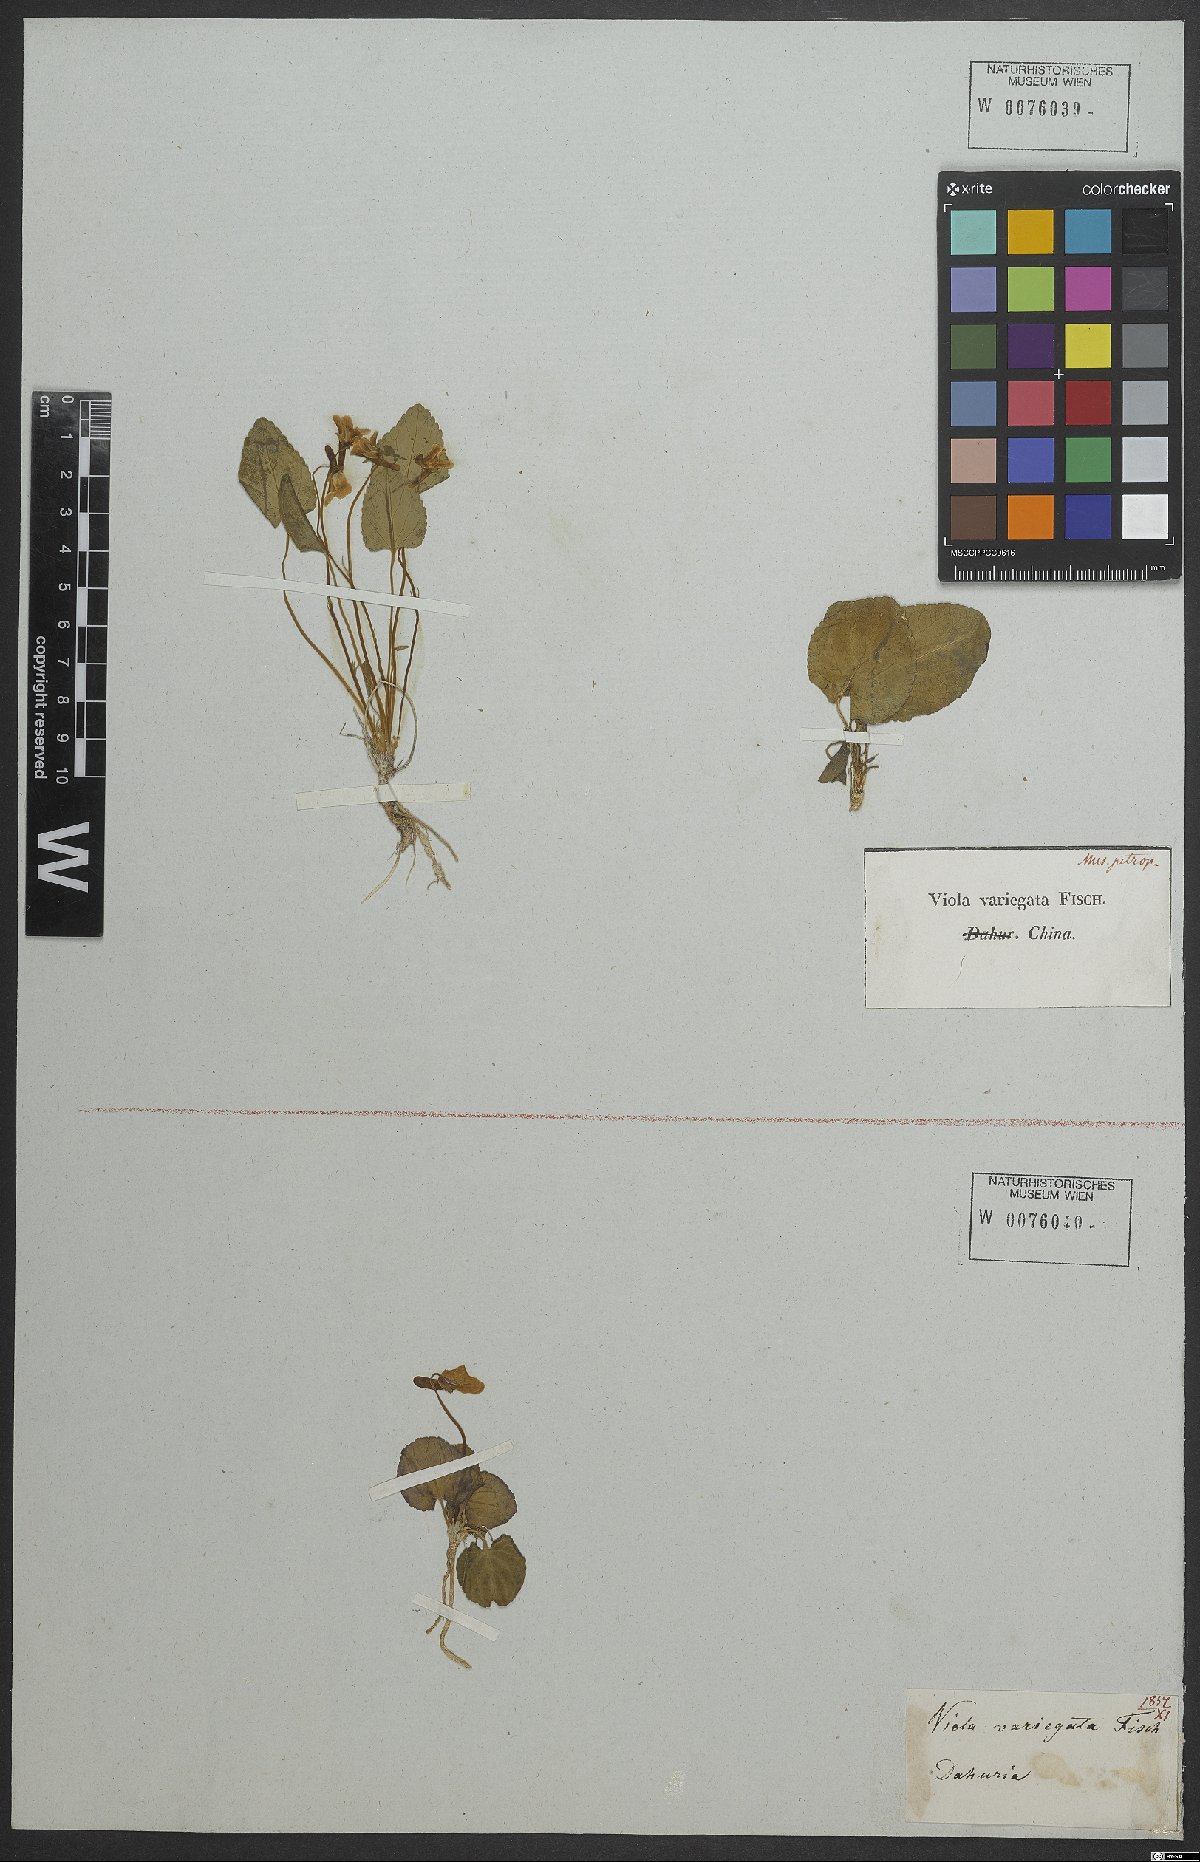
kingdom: Plantae
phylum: Tracheophyta
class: Magnoliopsida
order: Malpighiales
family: Violaceae
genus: Viola
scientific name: Viola variegata
